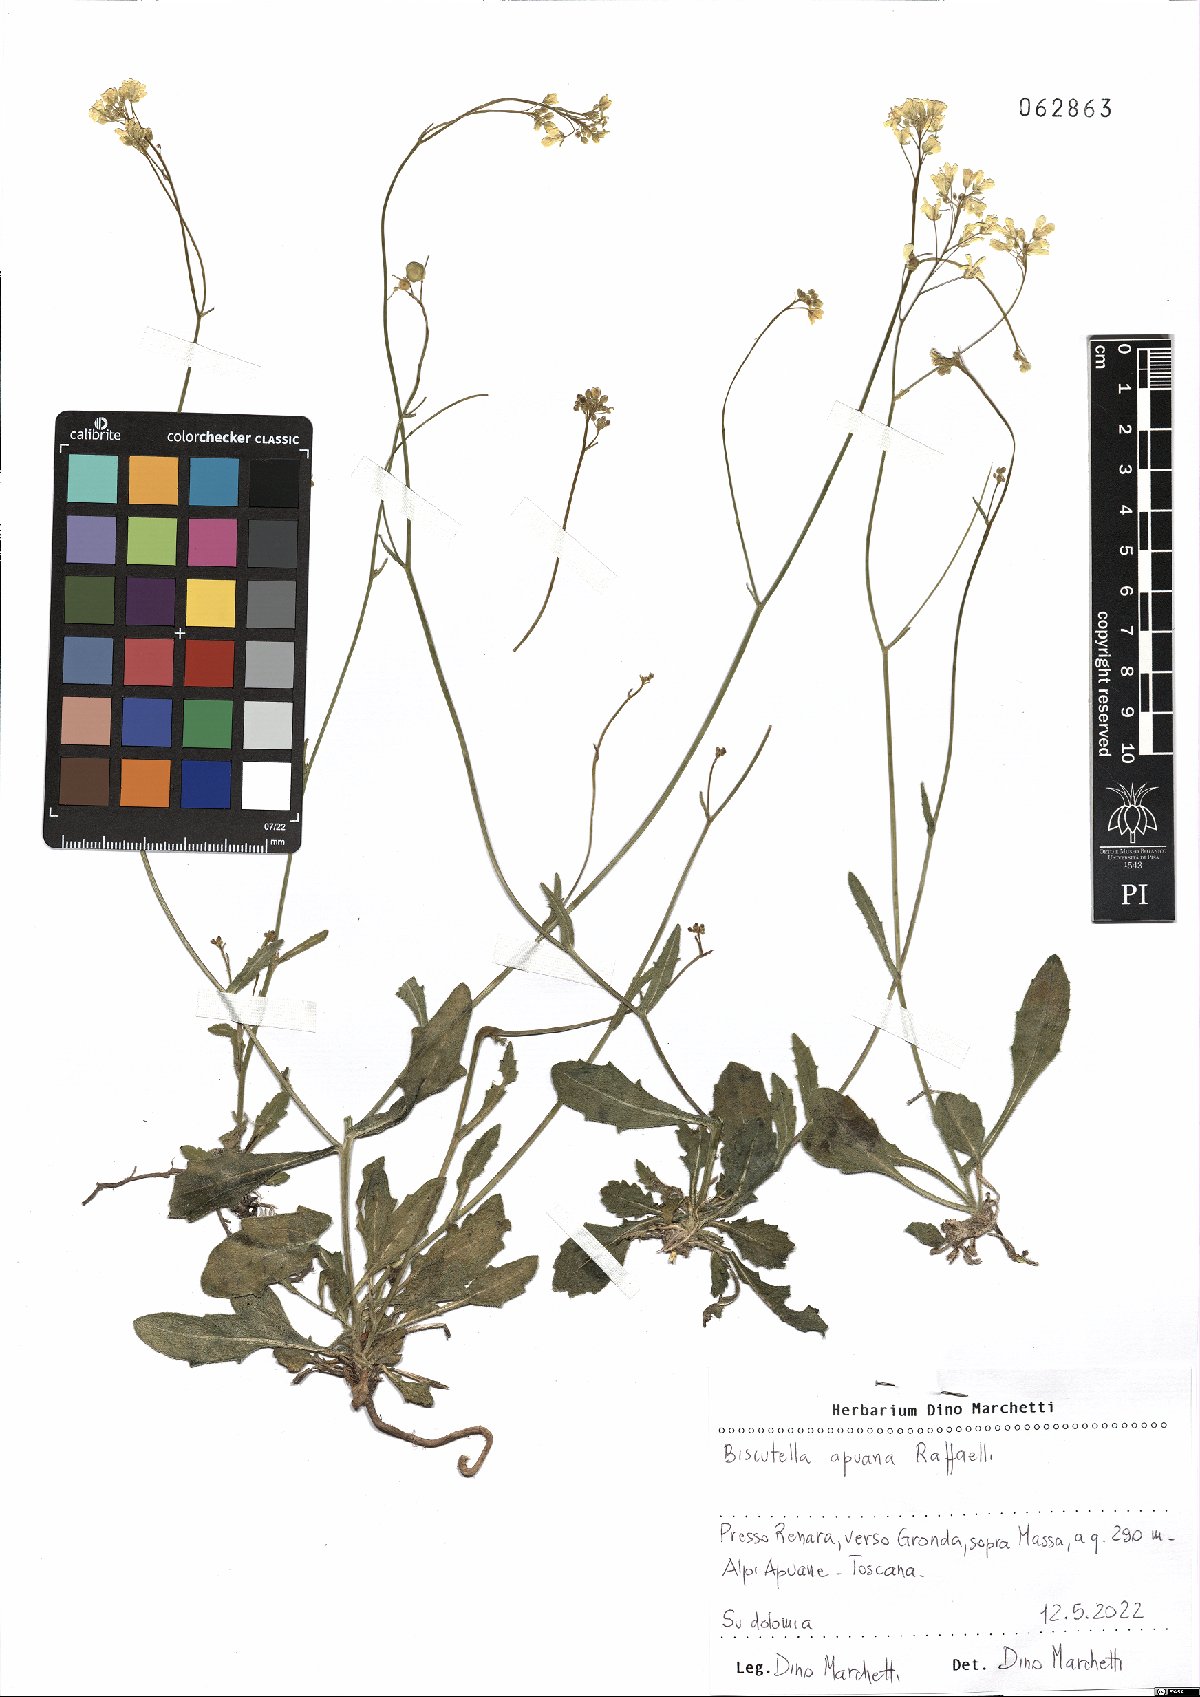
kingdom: Plantae
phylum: Tracheophyta
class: Magnoliopsida
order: Brassicales
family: Brassicaceae
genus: Biscutella
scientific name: Biscutella apuana
